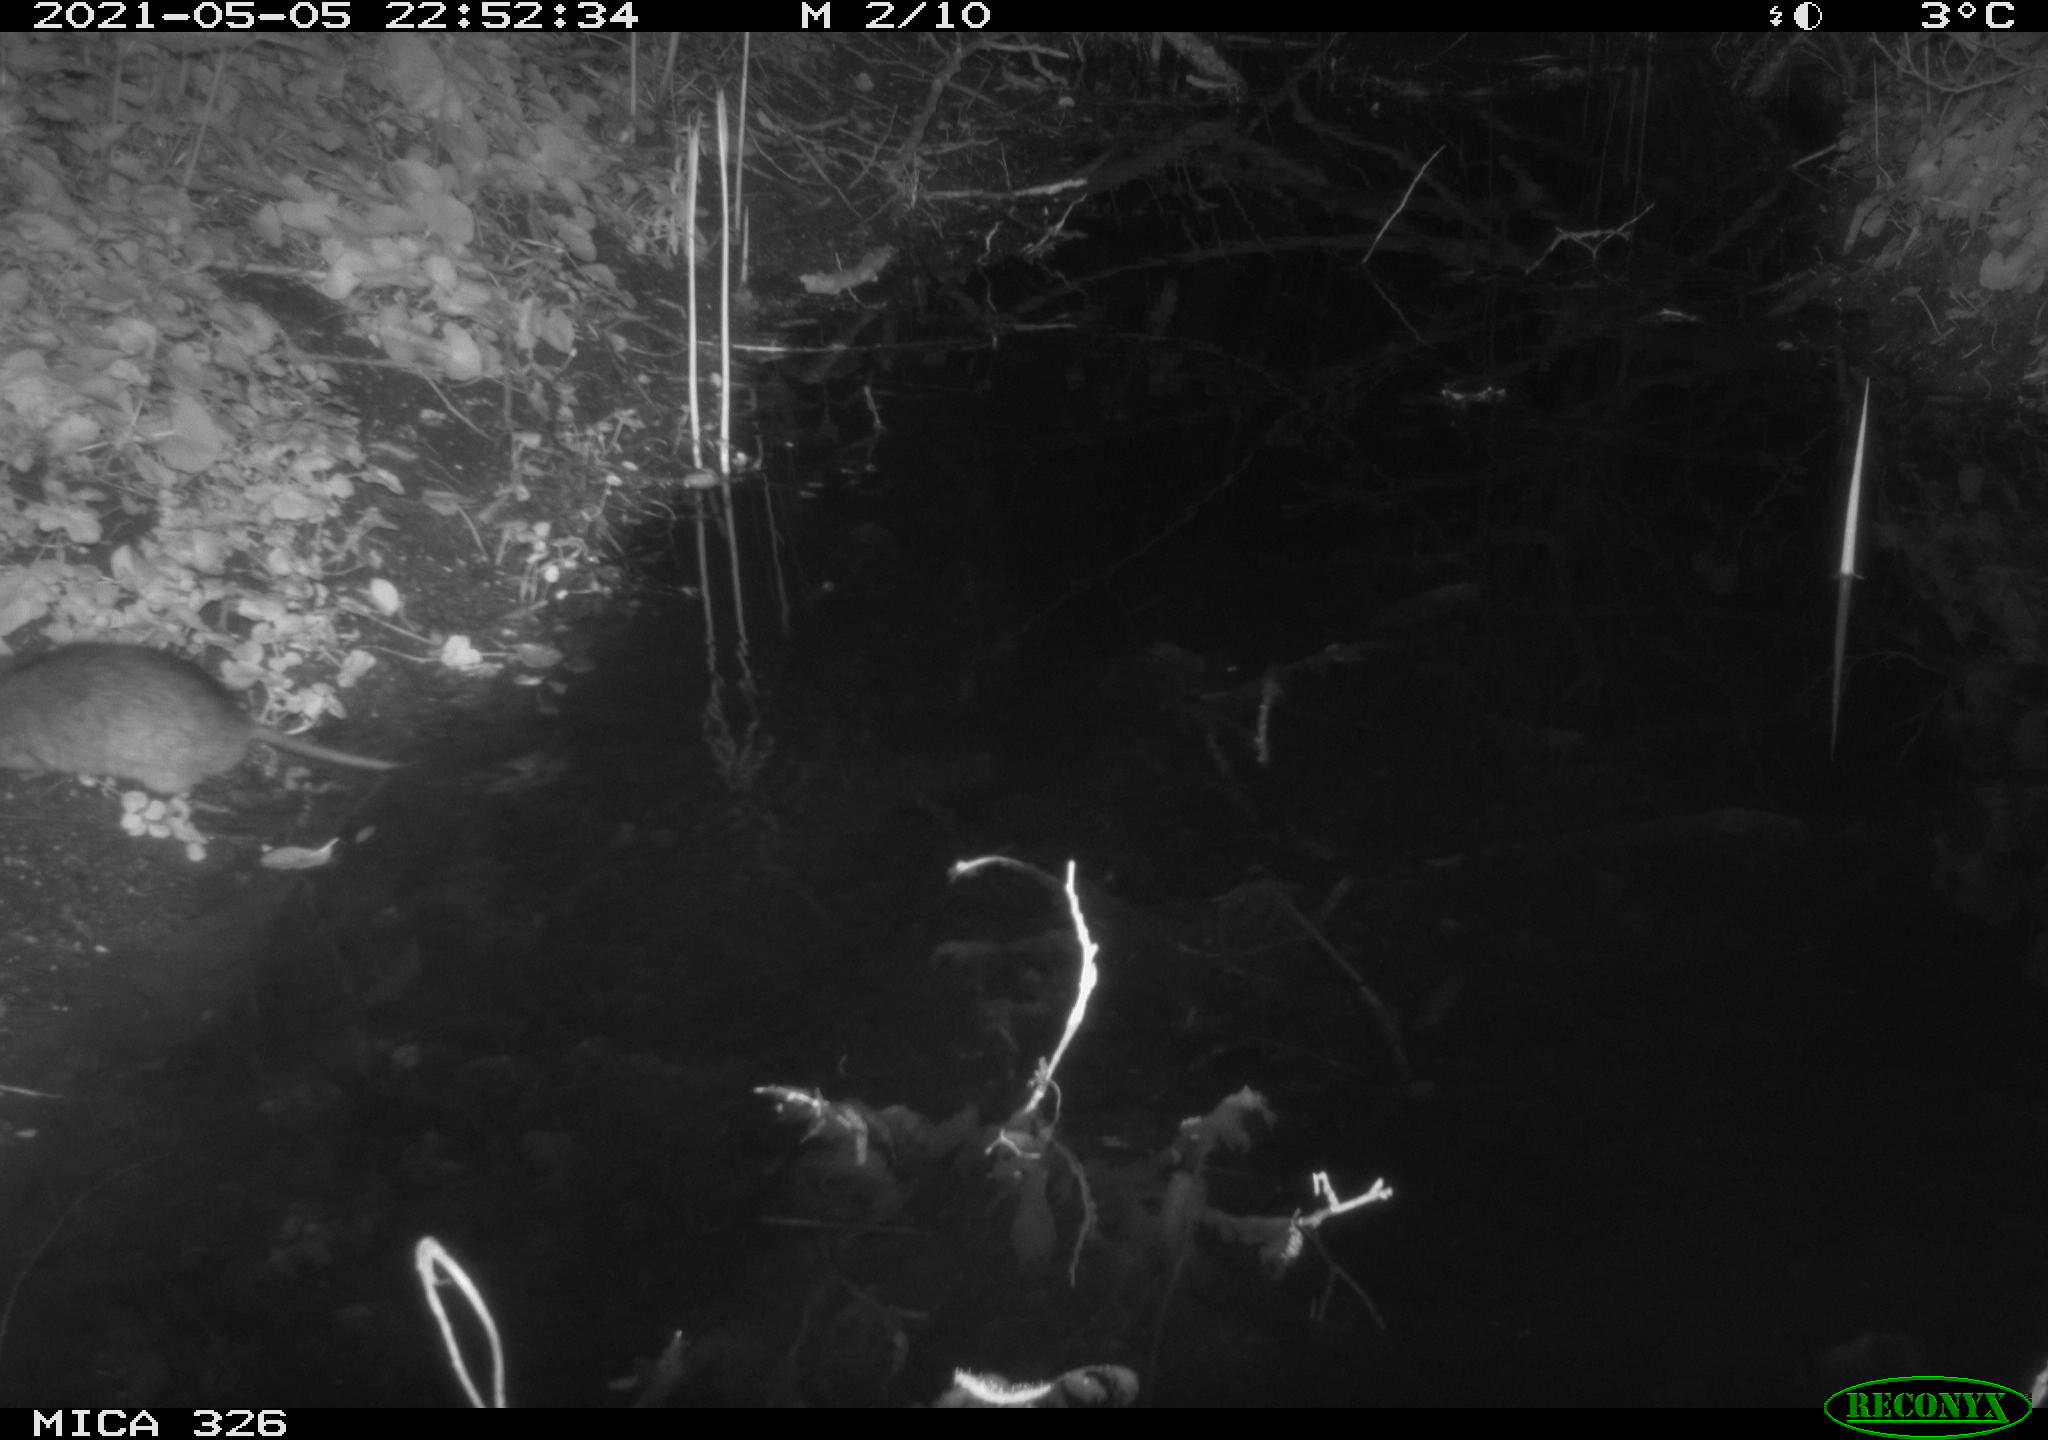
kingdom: Animalia
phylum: Chordata
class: Mammalia
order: Rodentia
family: Muridae
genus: Rattus
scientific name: Rattus norvegicus
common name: Brown rat
